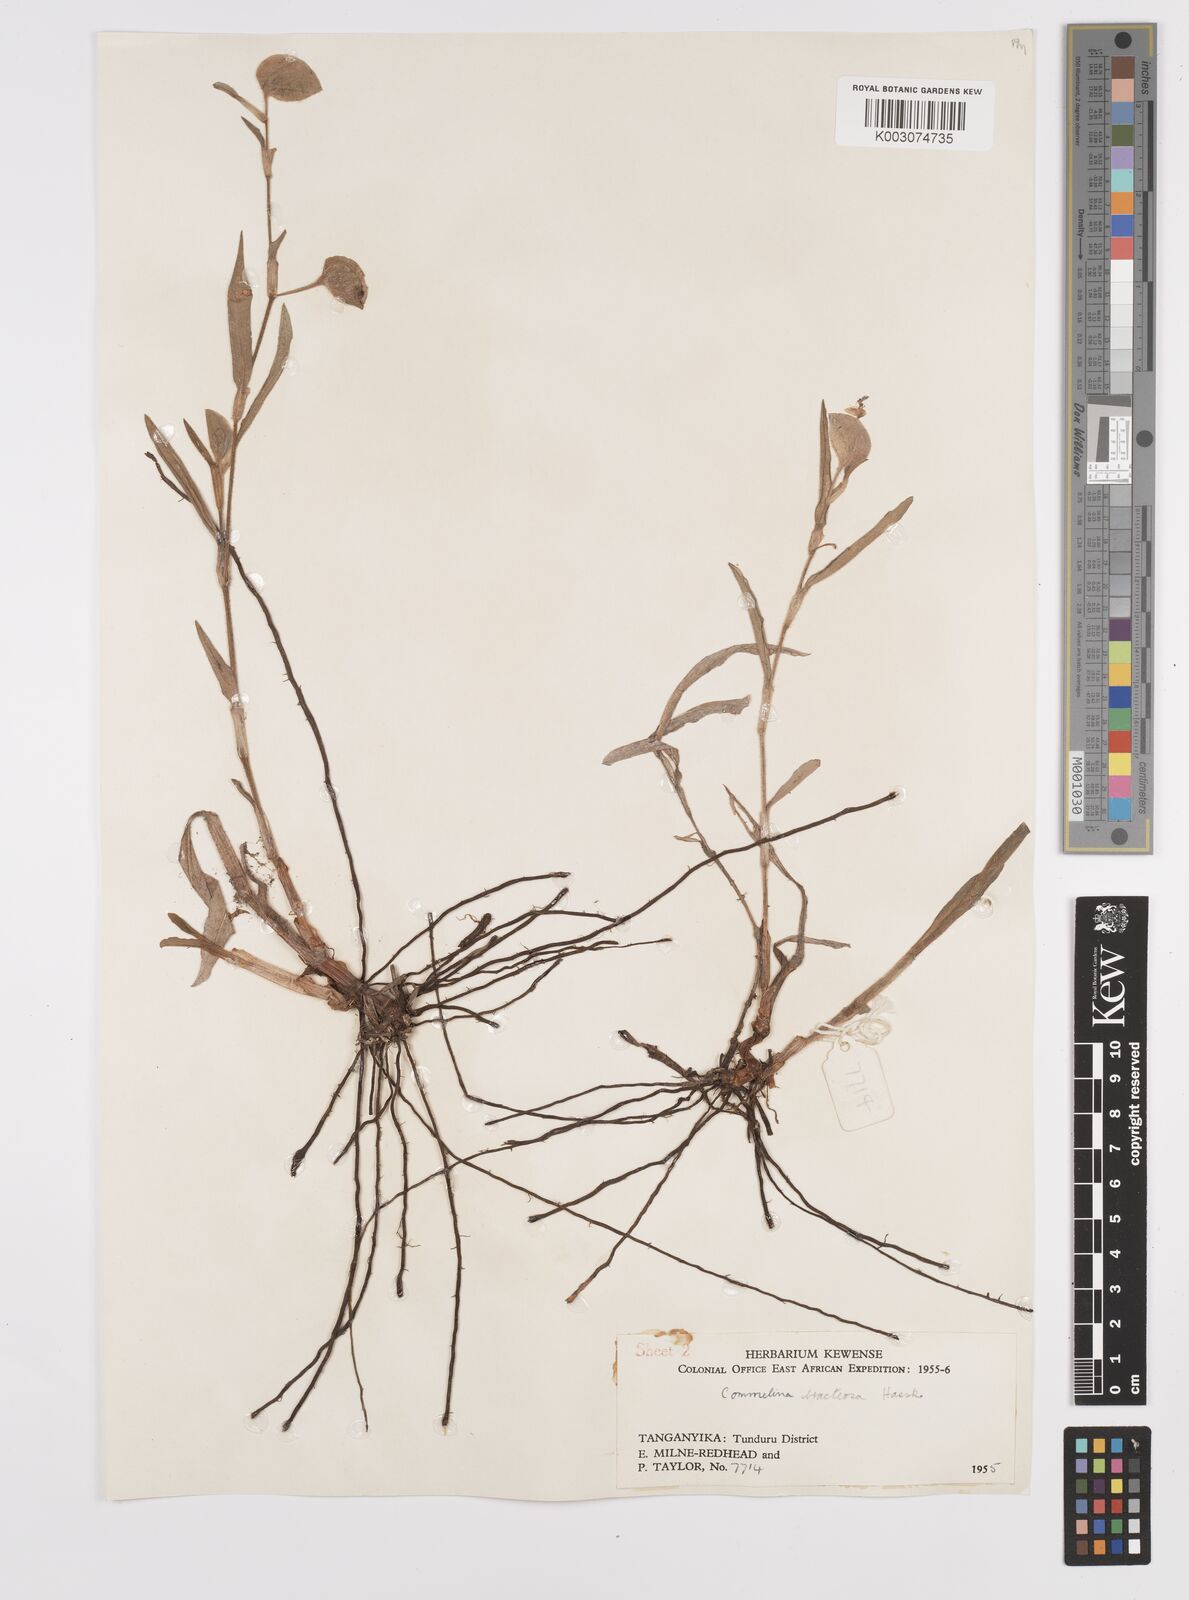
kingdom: Plantae
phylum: Tracheophyta
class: Liliopsida
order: Commelinales
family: Commelinaceae
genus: Commelina
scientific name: Commelina bracteosa
